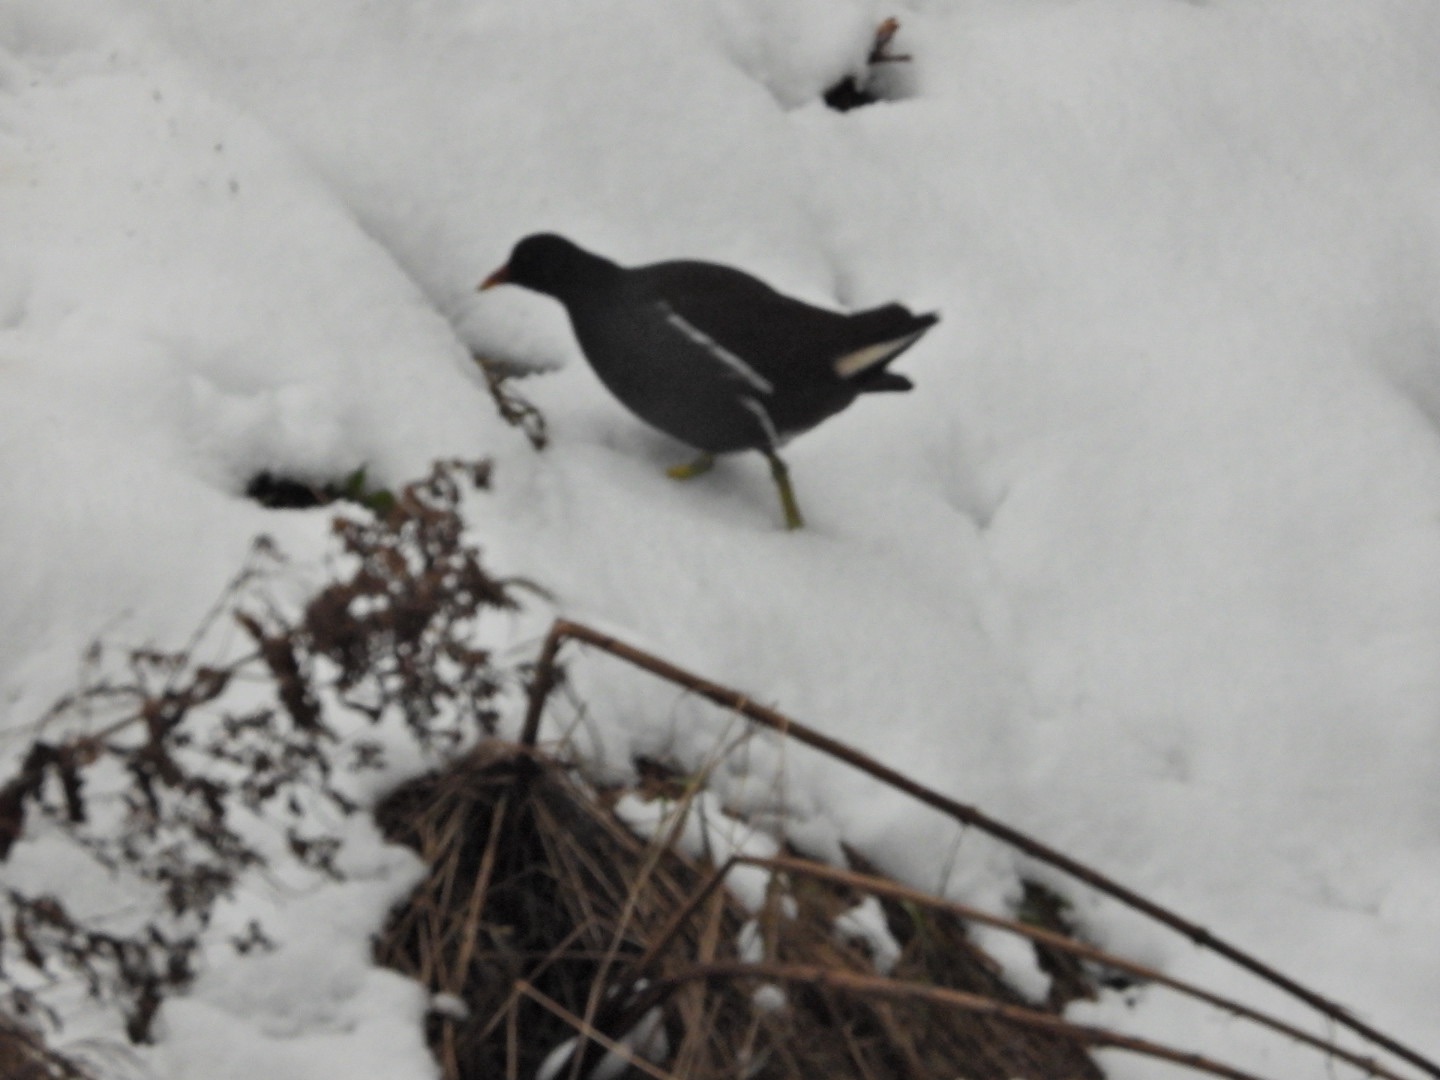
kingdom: Animalia
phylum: Chordata
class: Aves
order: Gruiformes
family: Rallidae
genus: Gallinula
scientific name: Gallinula chloropus
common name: Grønbenet rørhøne
